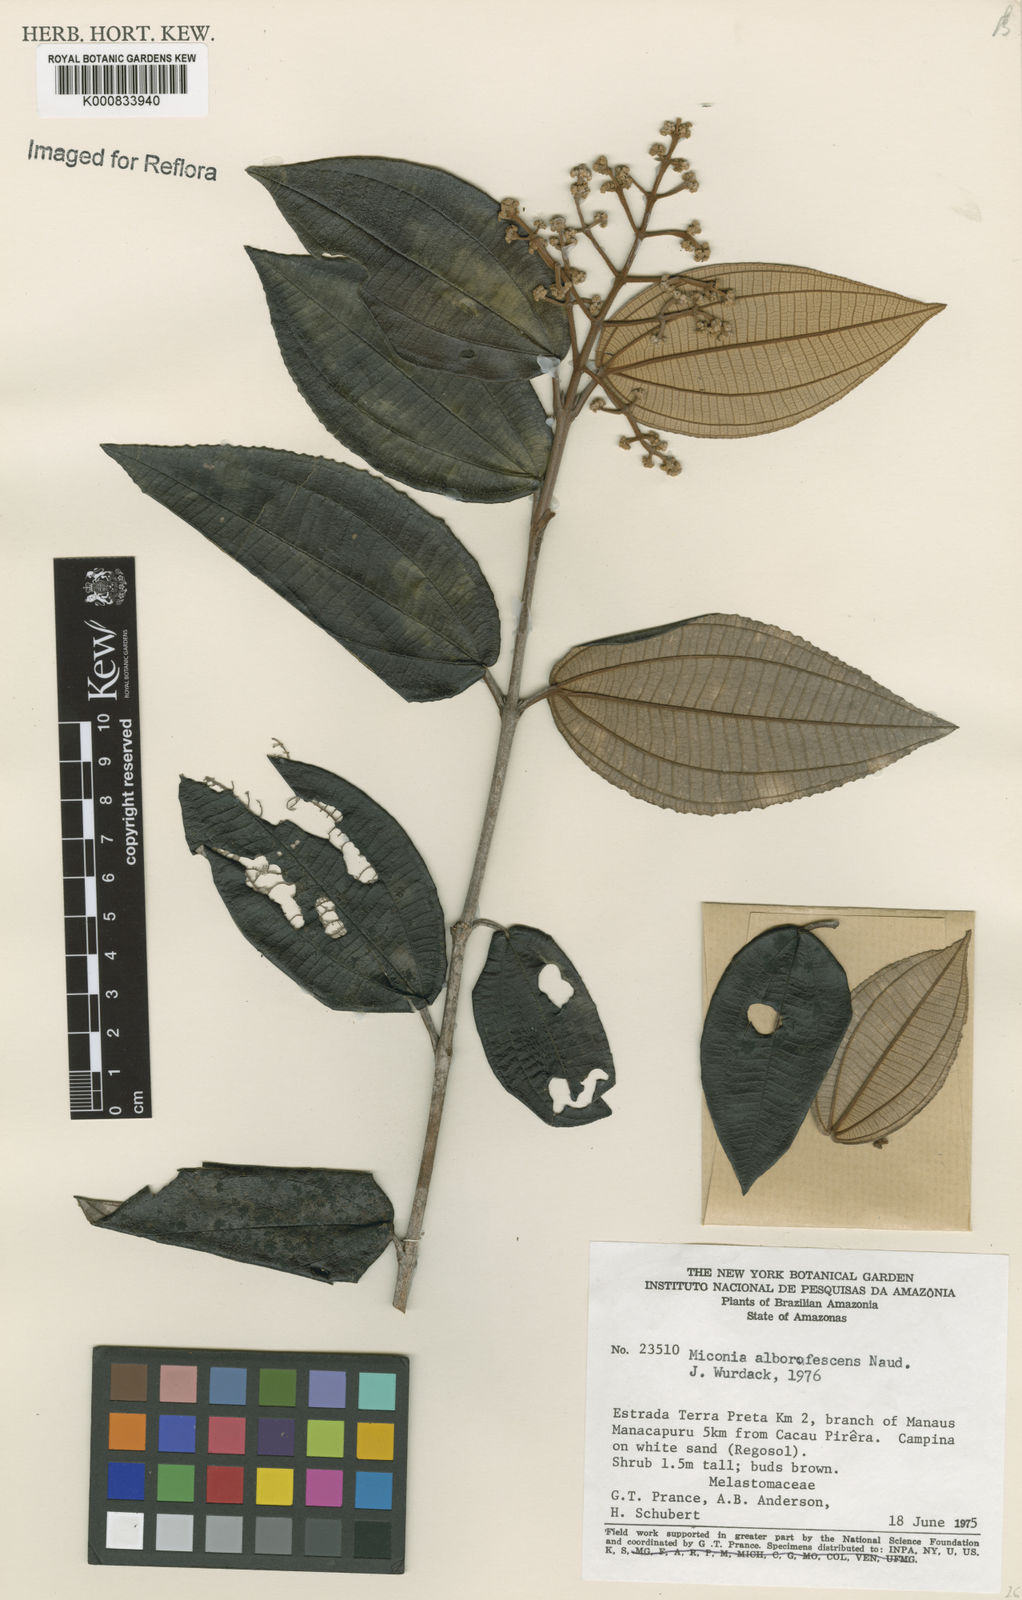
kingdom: Plantae
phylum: Tracheophyta
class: Magnoliopsida
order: Myrtales
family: Melastomataceae
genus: Miconia
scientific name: Miconia alborufescens
